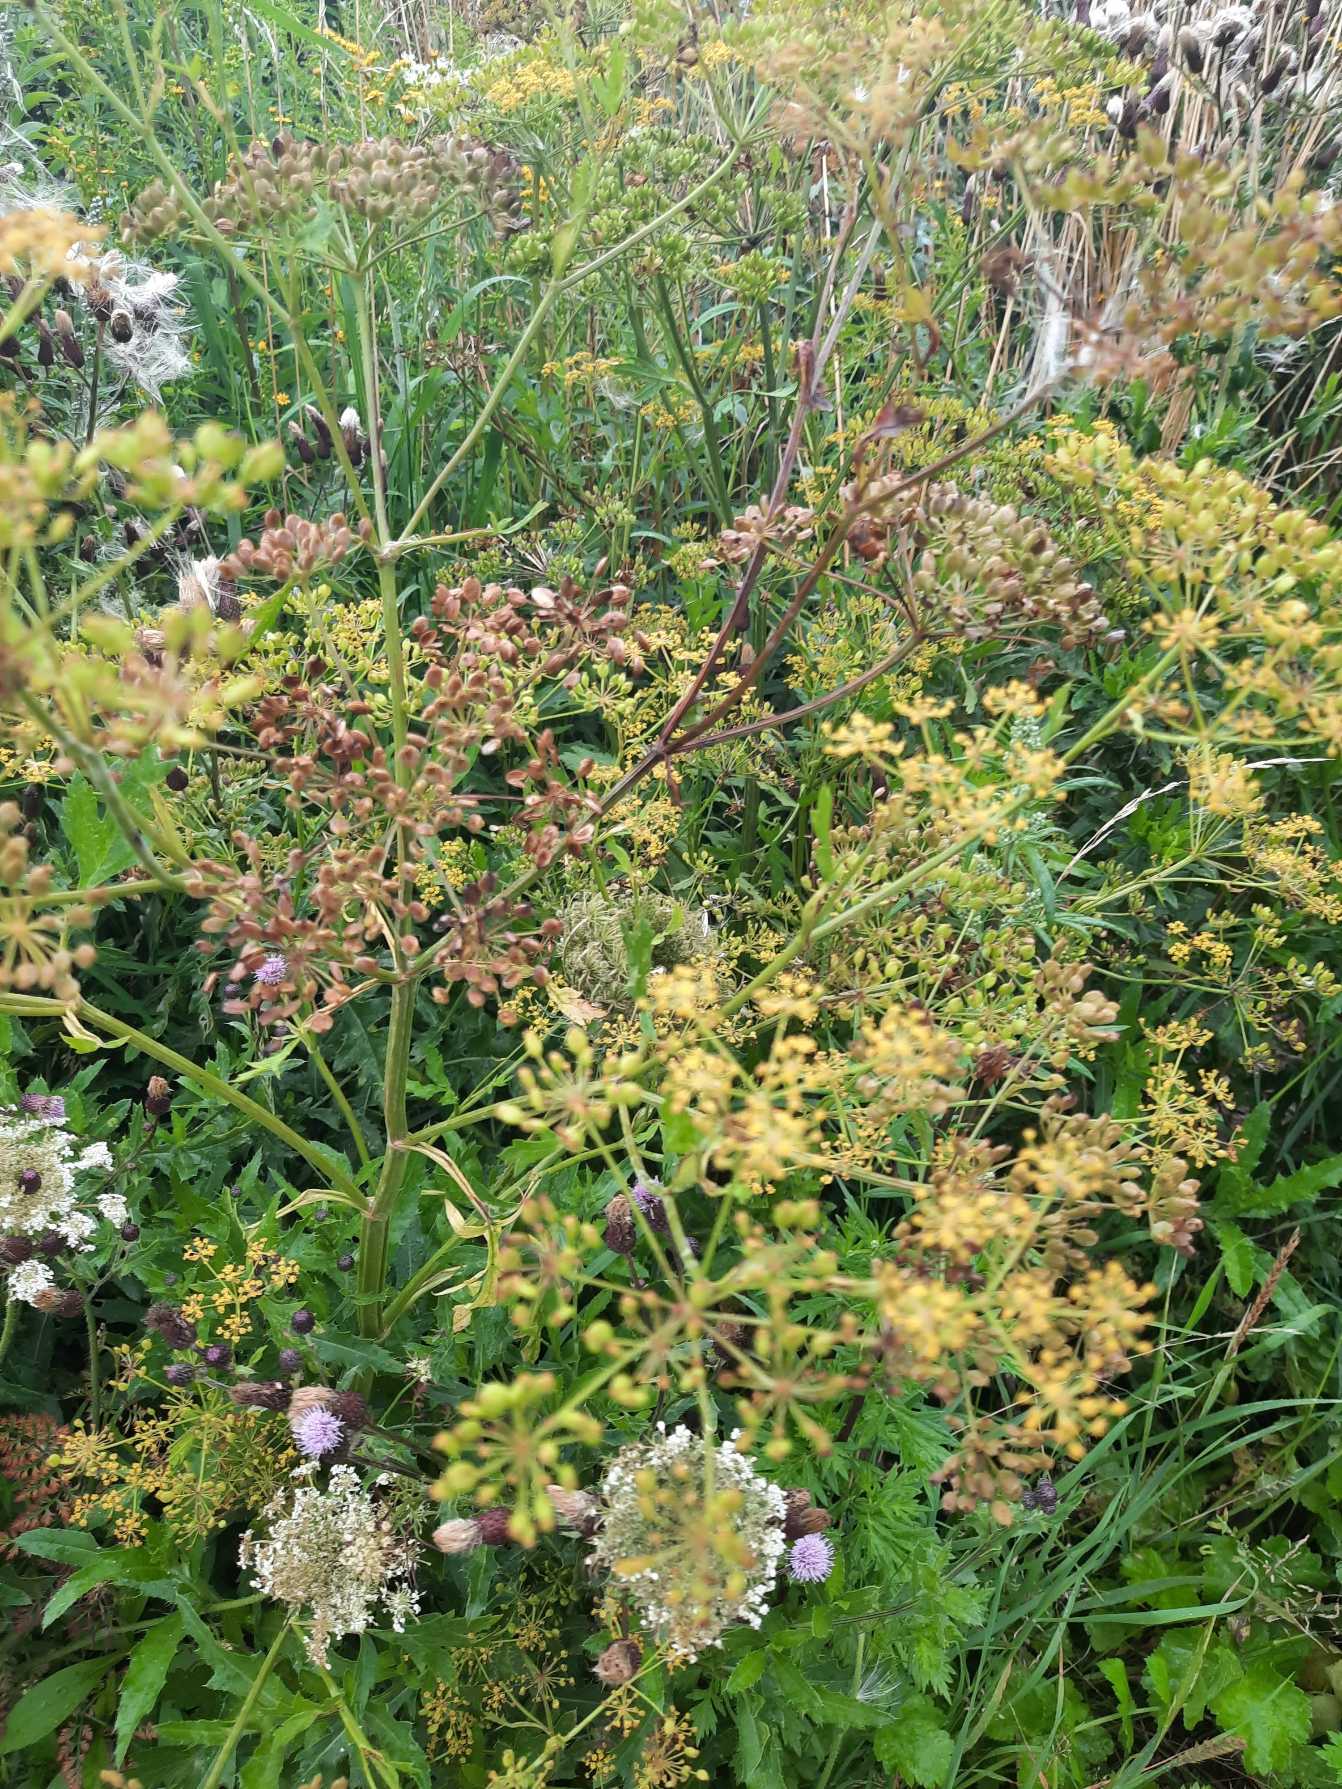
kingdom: Plantae
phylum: Tracheophyta
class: Magnoliopsida
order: Apiales
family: Apiaceae
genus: Pastinaca
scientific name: Pastinaca sativa
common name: Have-pastinak
